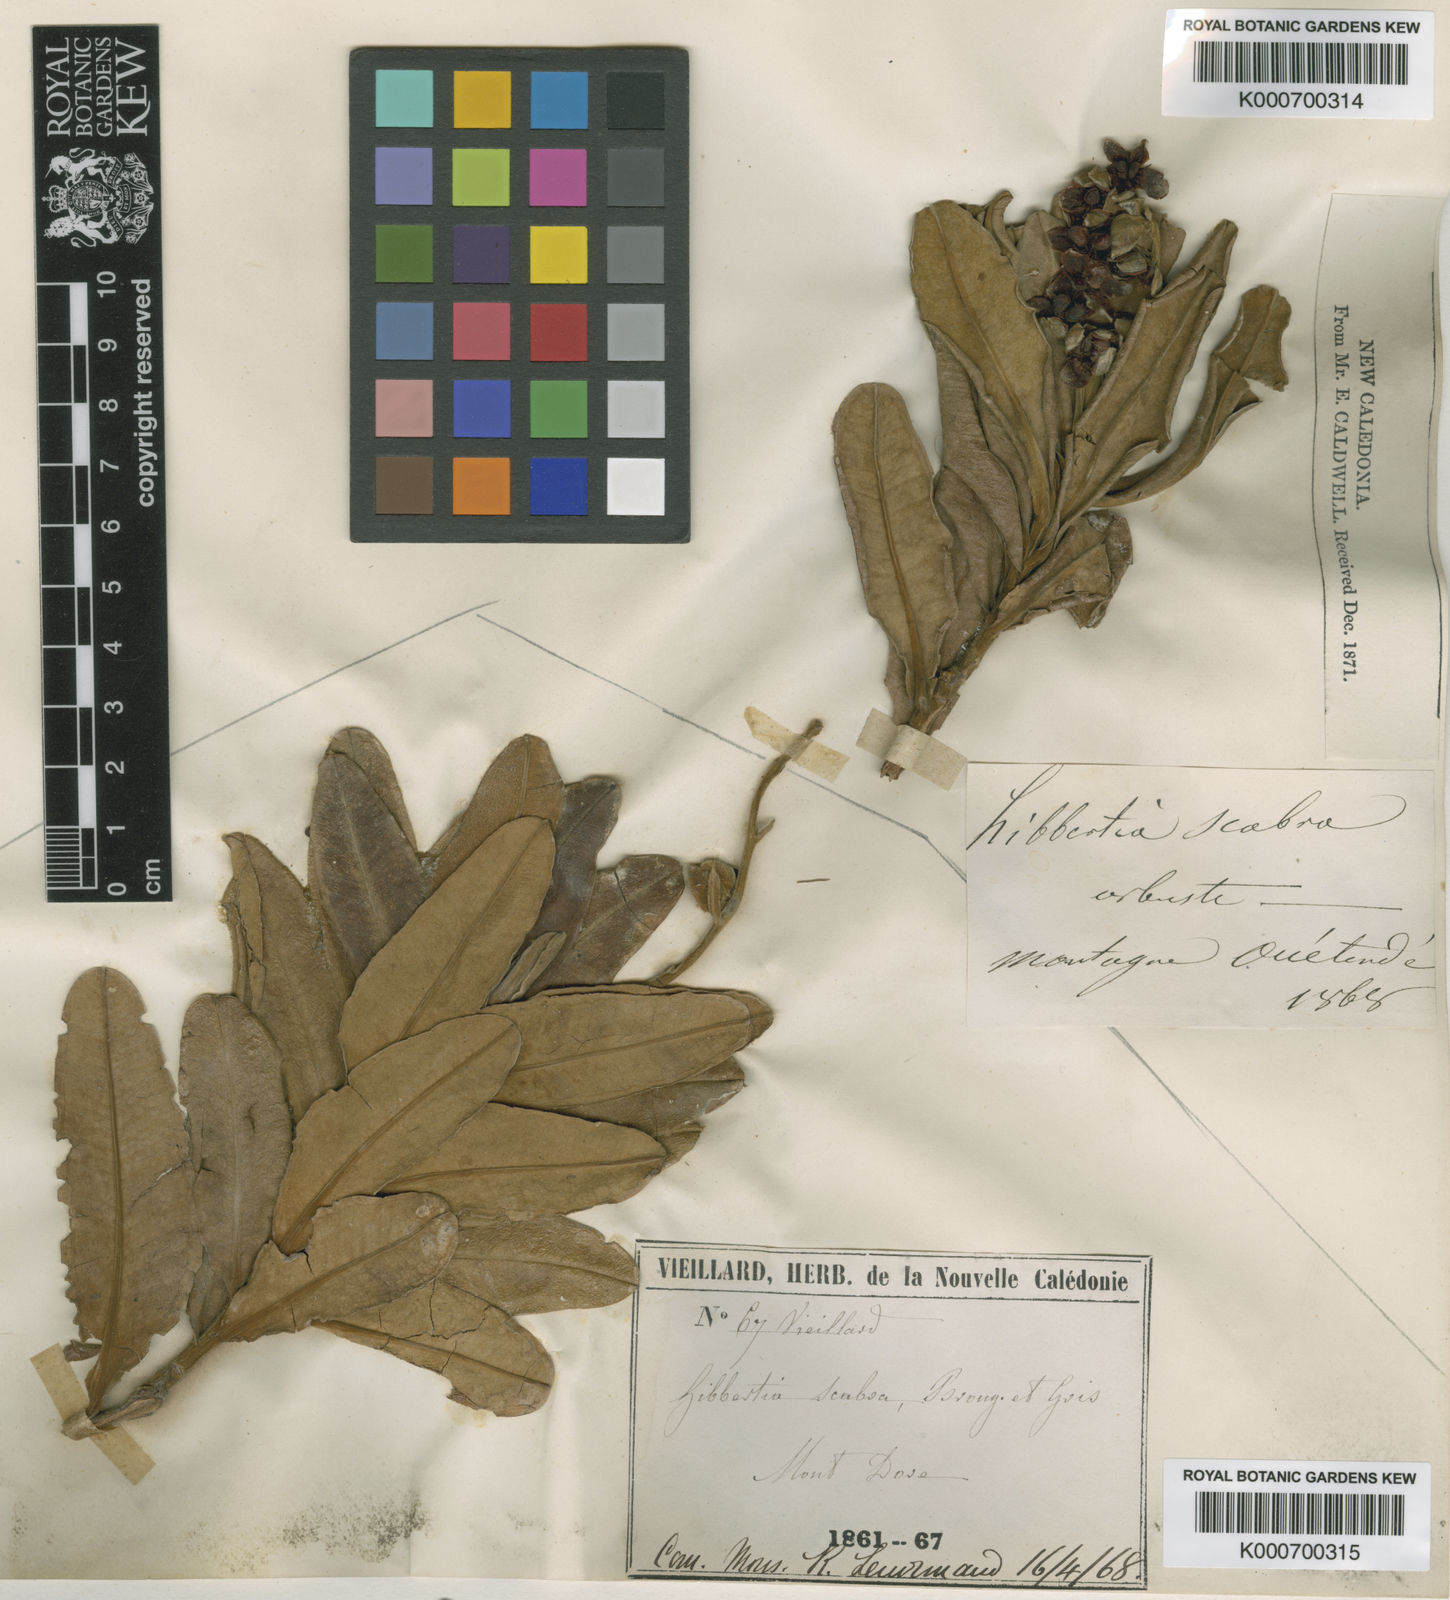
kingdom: Plantae
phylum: Tracheophyta
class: Magnoliopsida
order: Dilleniales
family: Dilleniaceae
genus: Hibbertia
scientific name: Hibbertia trachyphylla
